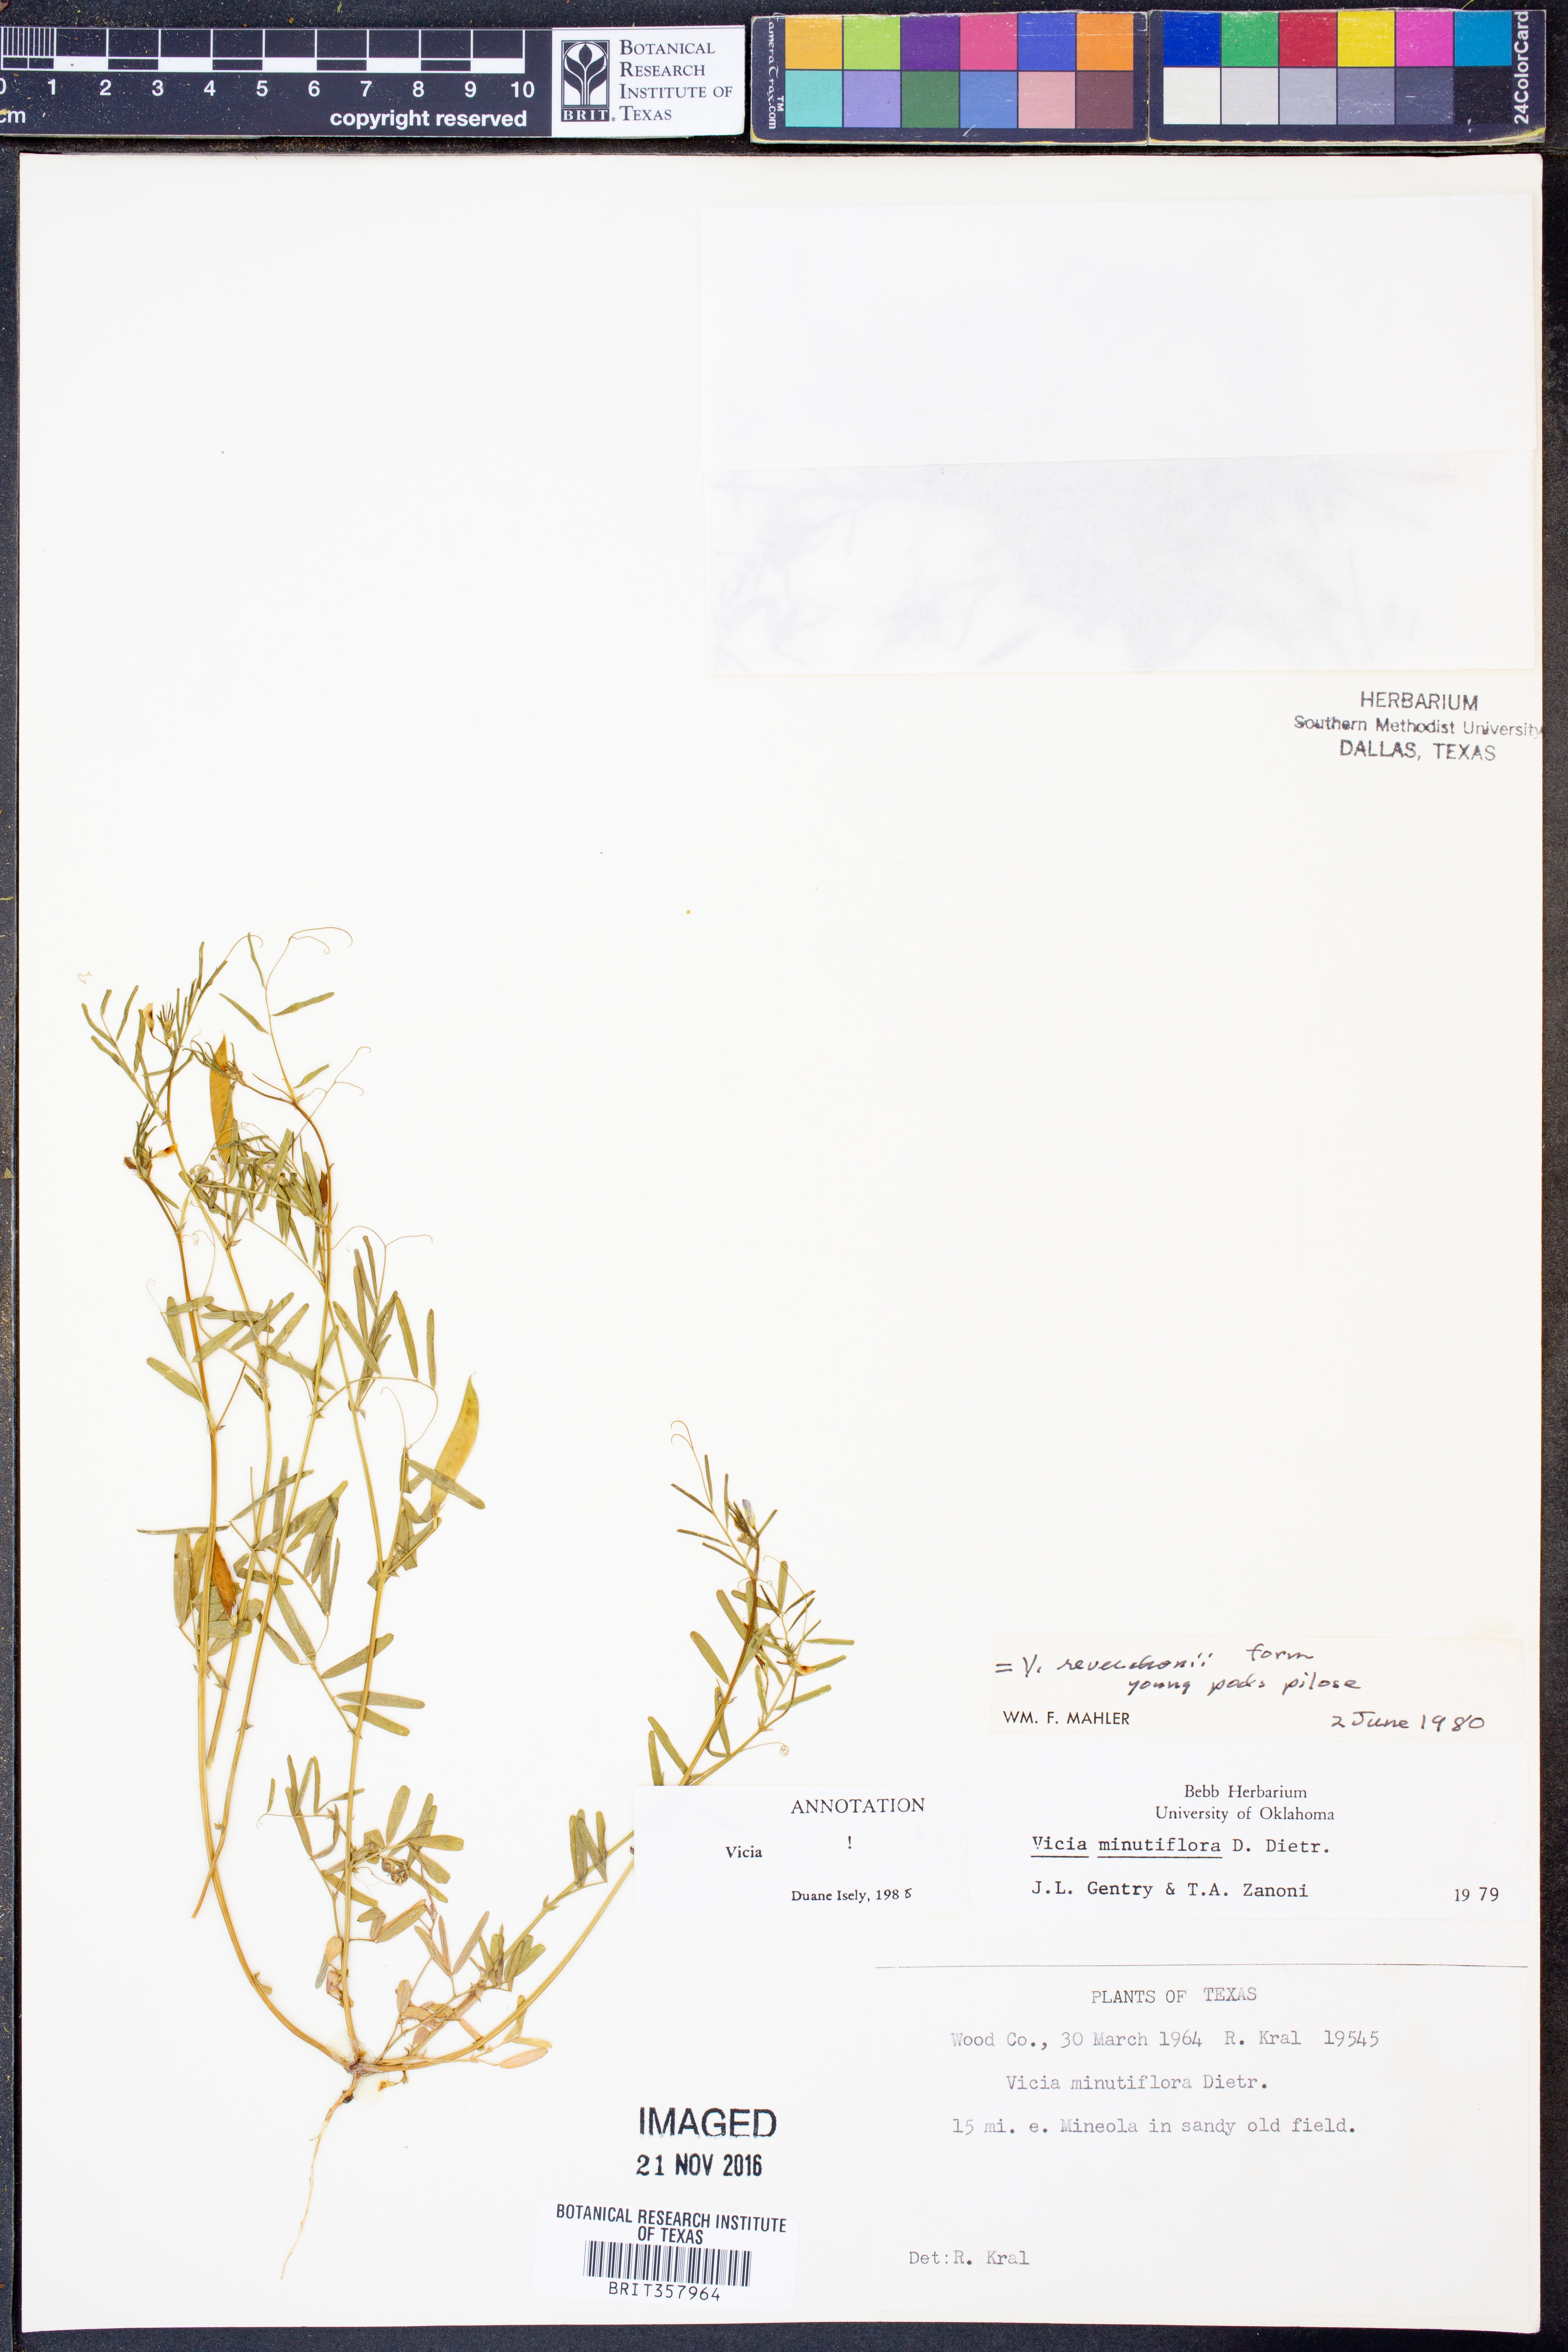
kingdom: Plantae
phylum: Tracheophyta
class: Magnoliopsida
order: Fabales
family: Fabaceae
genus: Vicia
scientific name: Vicia minutiflora
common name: Pygmy-flower vetch
